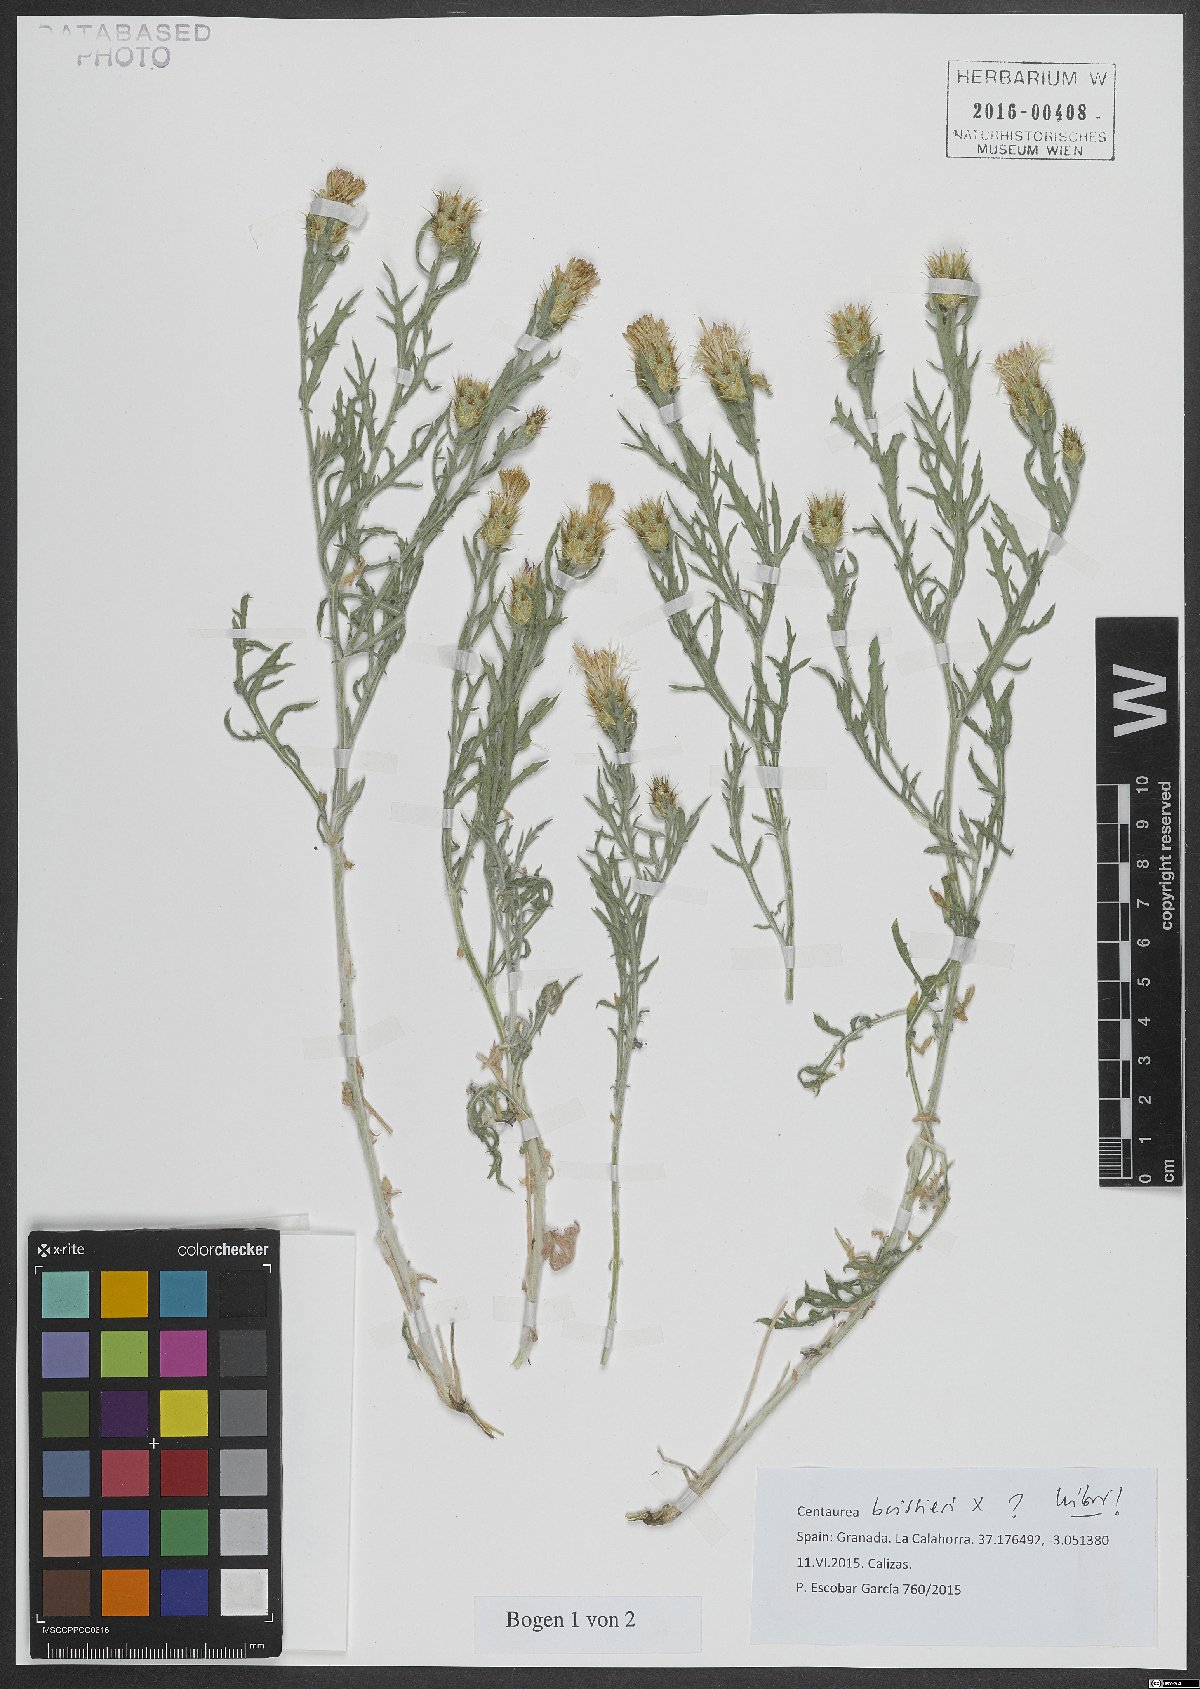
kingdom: Plantae
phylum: Tracheophyta
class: Magnoliopsida
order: Asterales
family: Asteraceae
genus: Centaurea
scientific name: Centaurea boissieri
